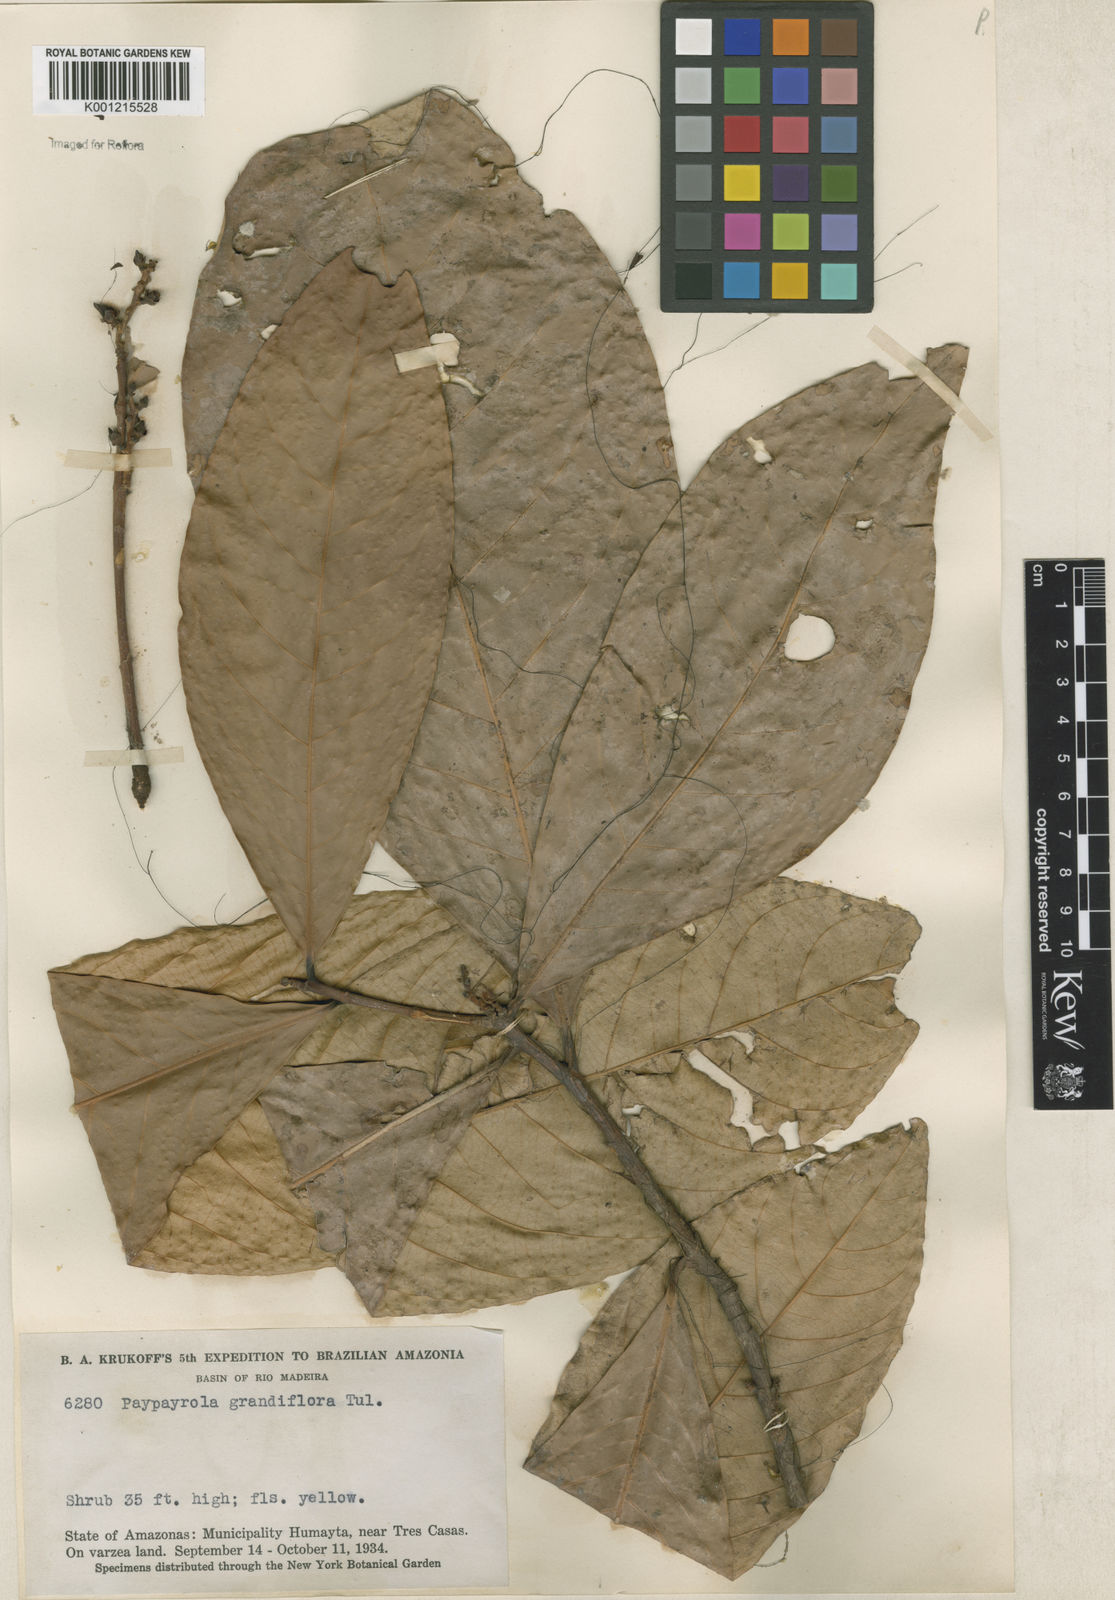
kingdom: Plantae
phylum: Tracheophyta
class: Magnoliopsida
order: Malpighiales
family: Violaceae
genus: Paypayrola
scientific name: Paypayrola grandiflora
